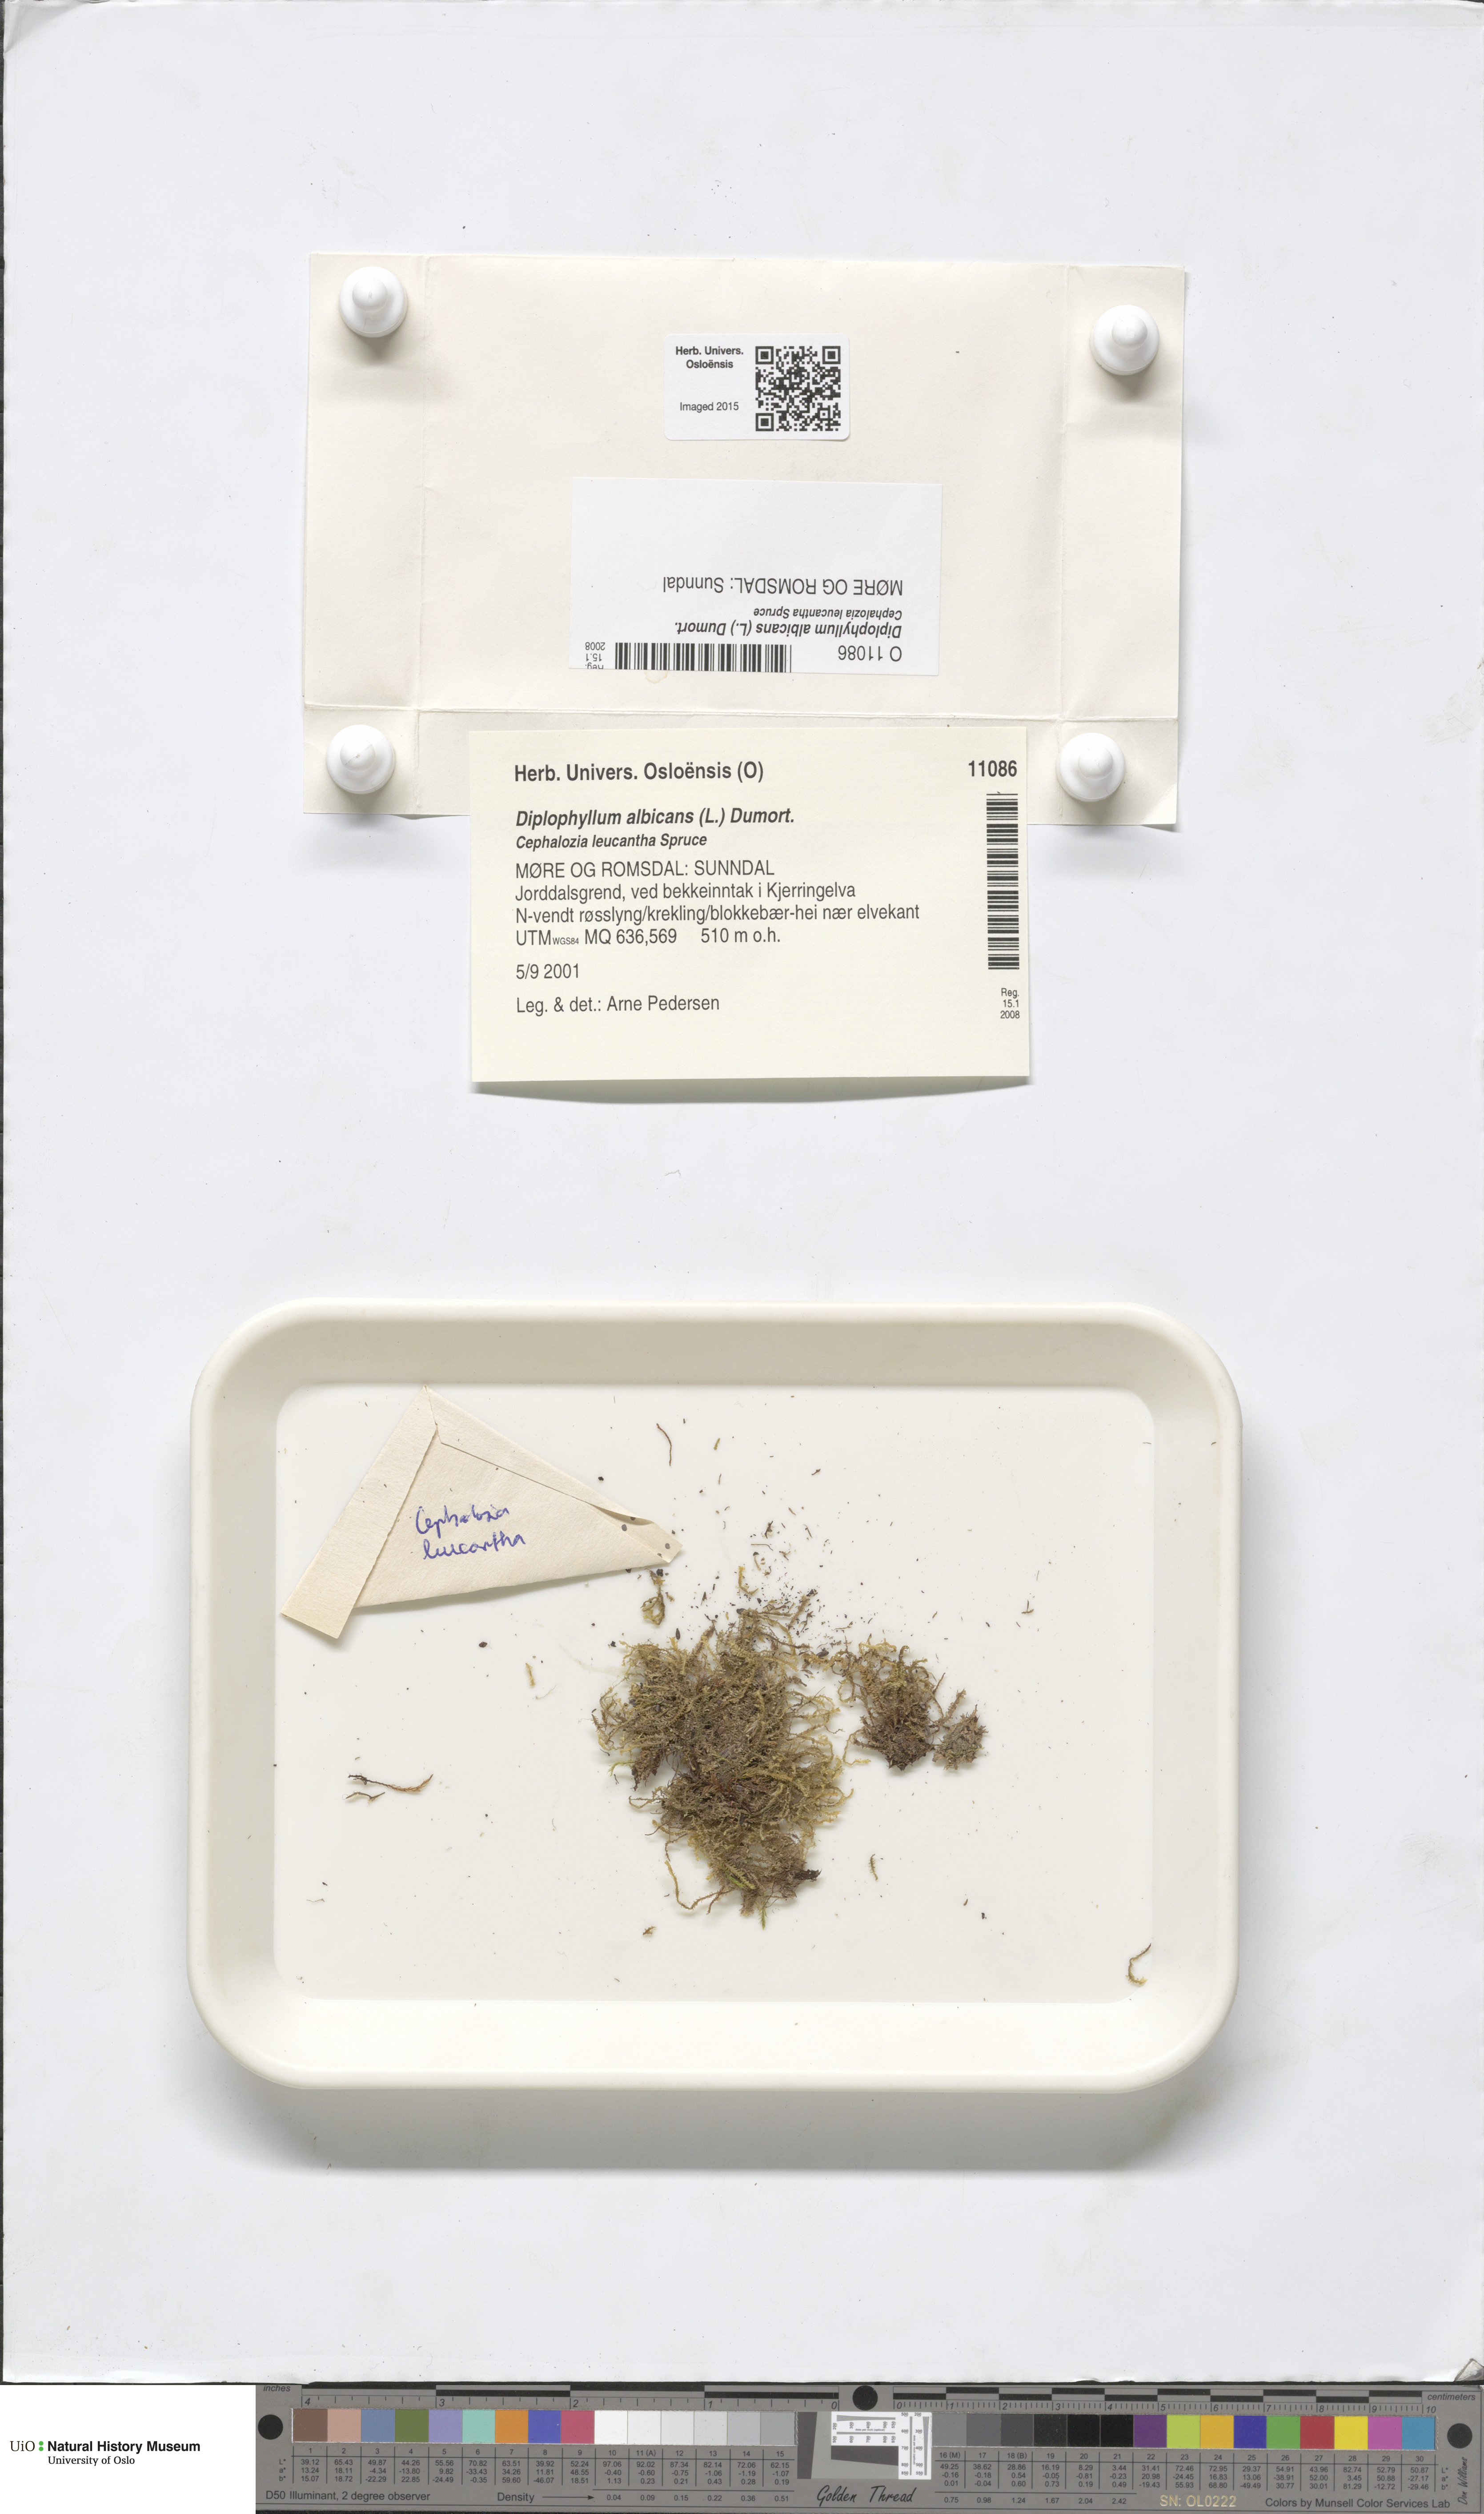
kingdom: Plantae
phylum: Marchantiophyta
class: Jungermanniopsida
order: Jungermanniales
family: Scapaniaceae
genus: Diplophyllum
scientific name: Diplophyllum albicans
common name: White earwort
